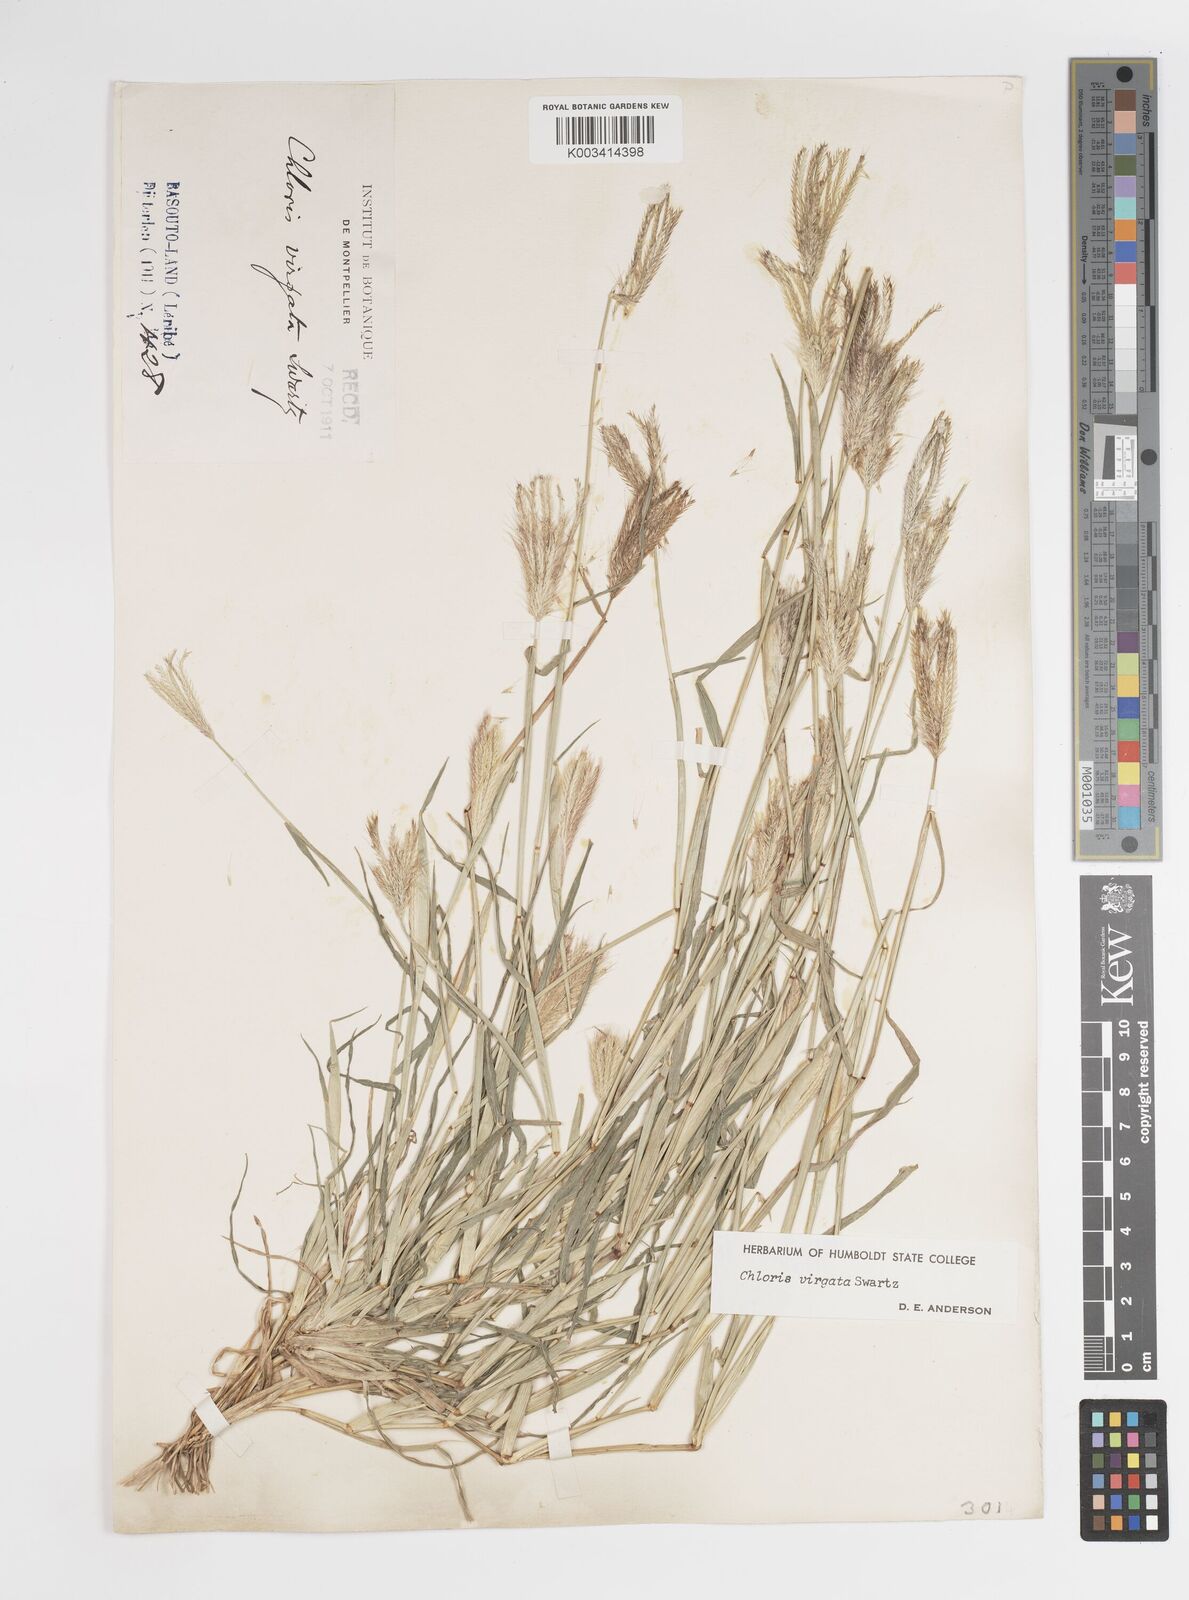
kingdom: Plantae
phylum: Tracheophyta
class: Liliopsida
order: Poales
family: Poaceae
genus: Chloris
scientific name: Chloris virgata
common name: Feathery rhodes-grass
